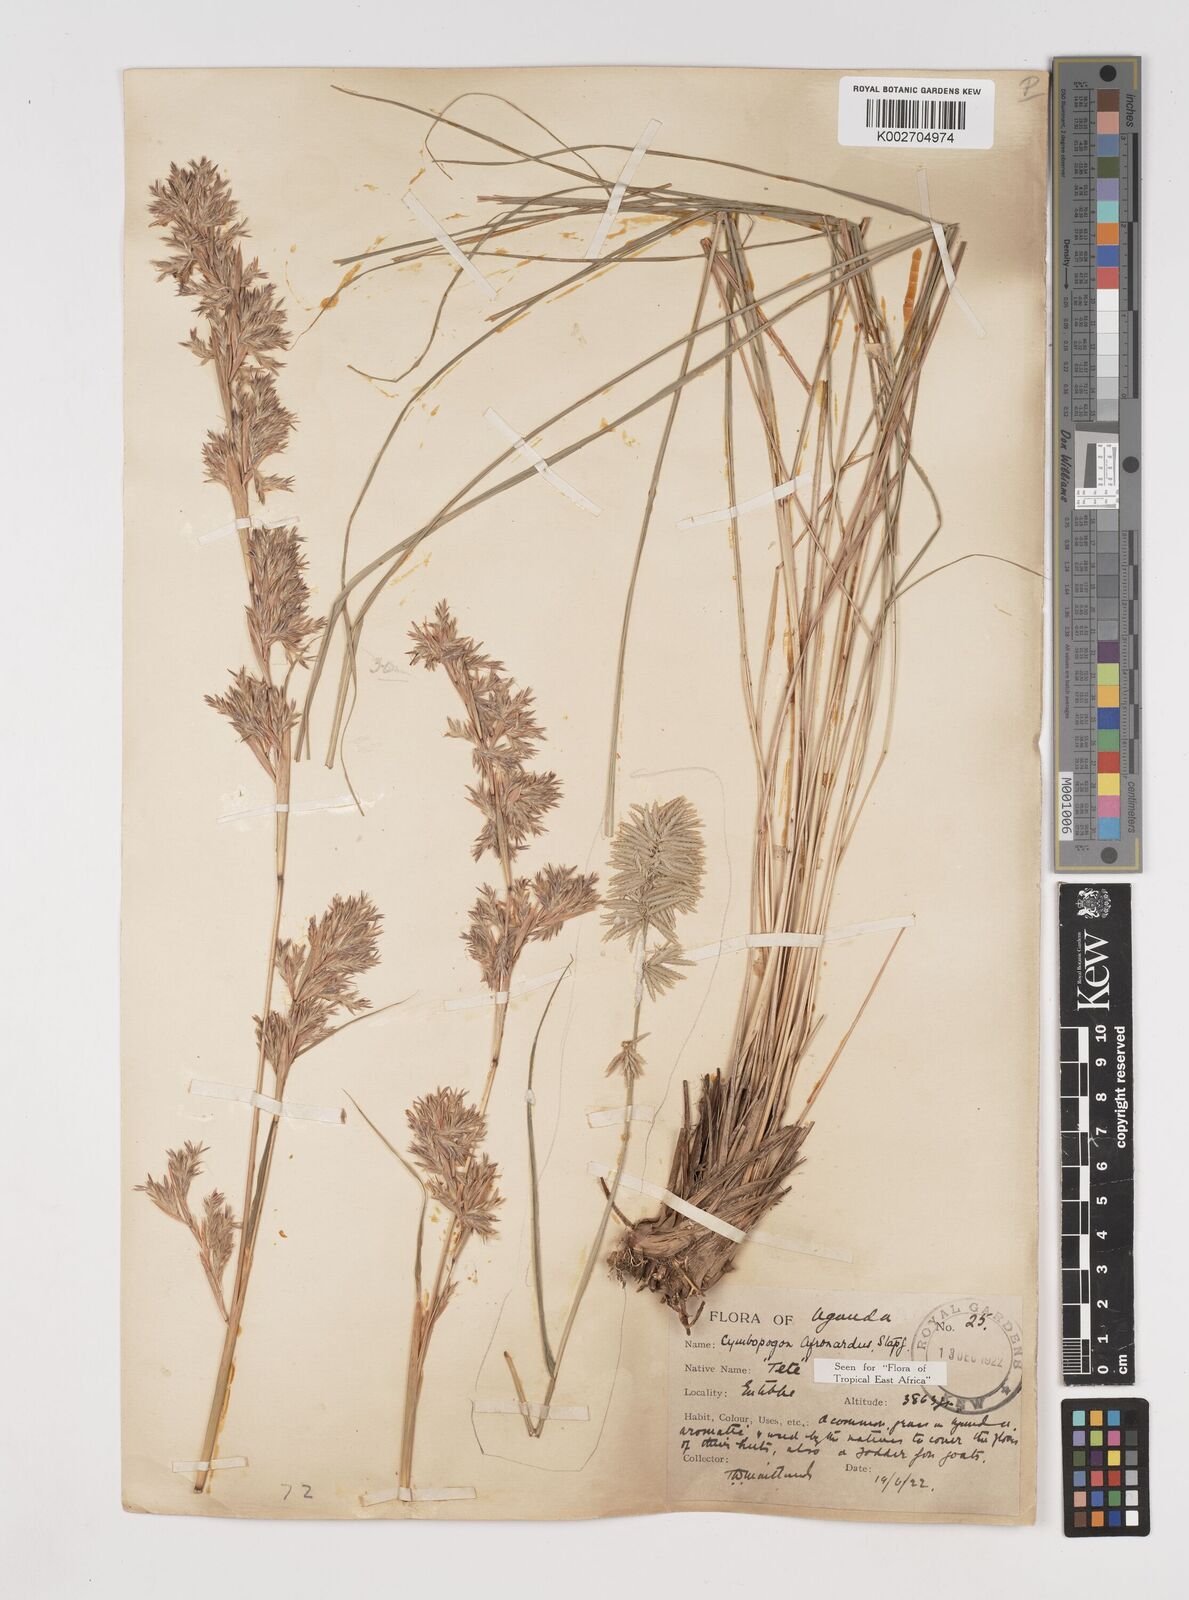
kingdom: Plantae
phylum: Tracheophyta
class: Liliopsida
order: Poales
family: Poaceae
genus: Cymbopogon
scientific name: Cymbopogon nardus
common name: Giant turpentine grass
